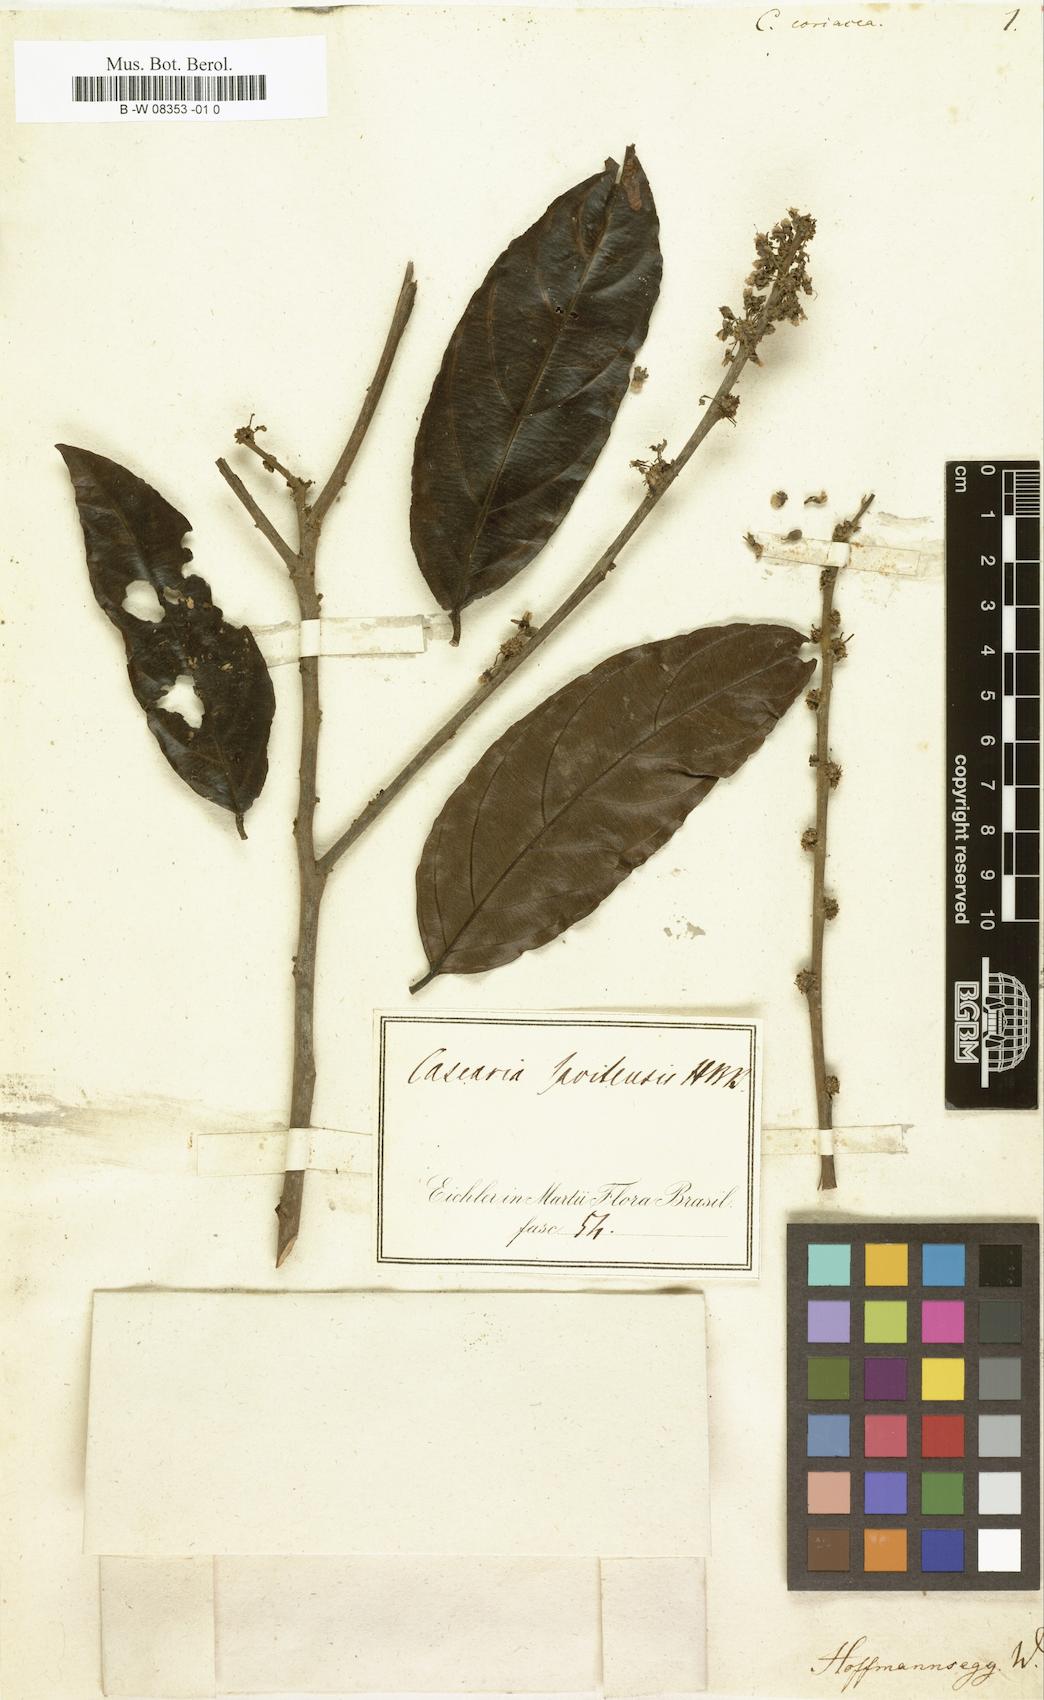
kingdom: Plantae
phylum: Tracheophyta
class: Magnoliopsida
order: Malpighiales
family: Salicaceae
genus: Casearia
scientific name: Casearia coriacea
